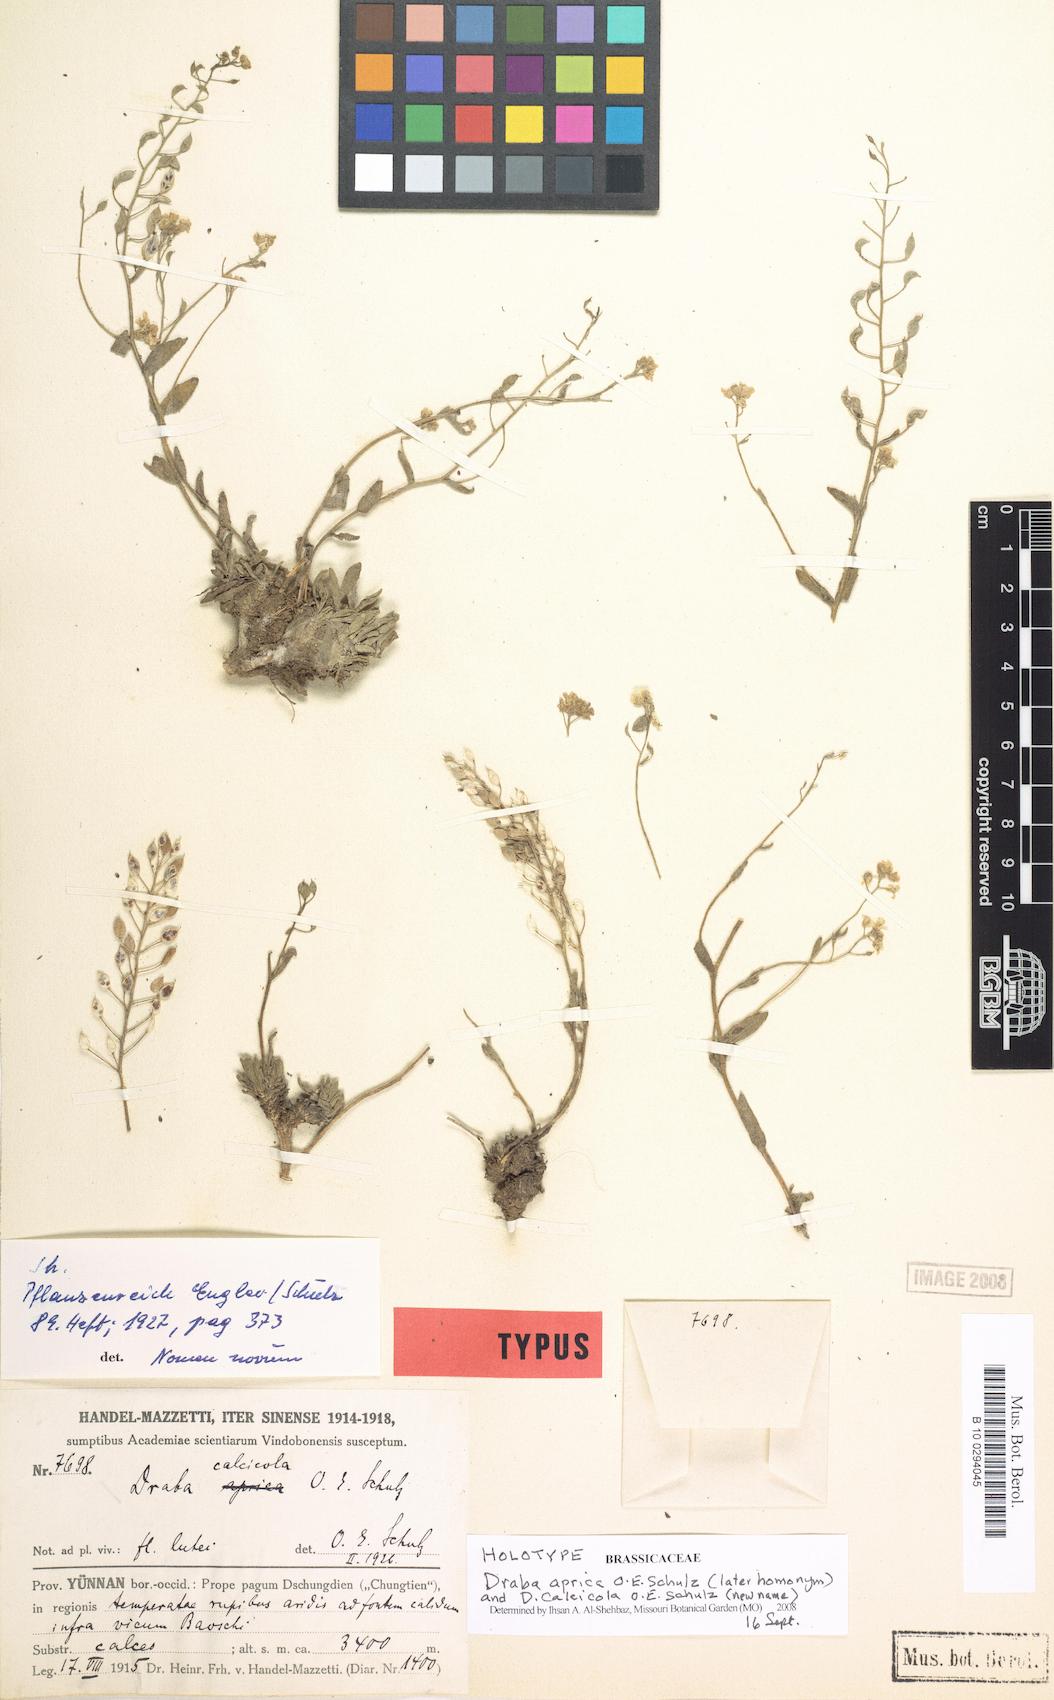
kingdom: Plantae
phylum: Tracheophyta
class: Magnoliopsida
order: Brassicales
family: Brassicaceae
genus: Draba
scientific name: Draba calcicola
